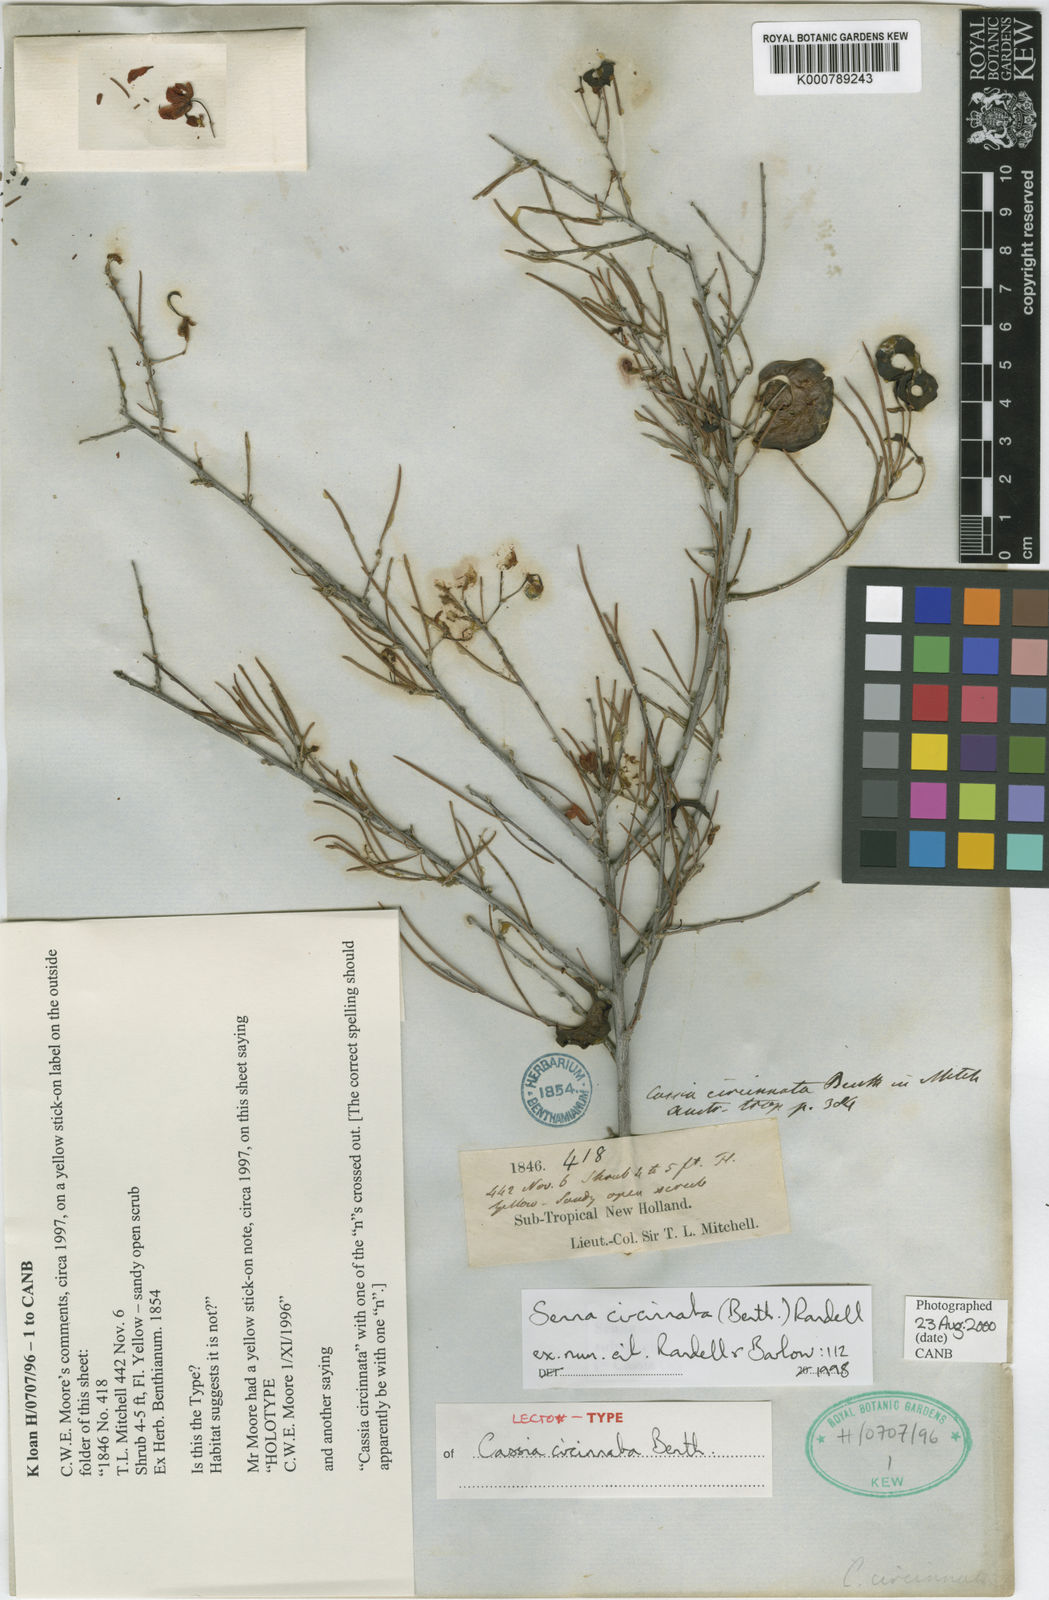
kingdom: Plantae
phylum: Tracheophyta
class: Magnoliopsida
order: Fabales
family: Fabaceae
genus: Senna
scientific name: Senna circinnata
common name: Coiled cassia
